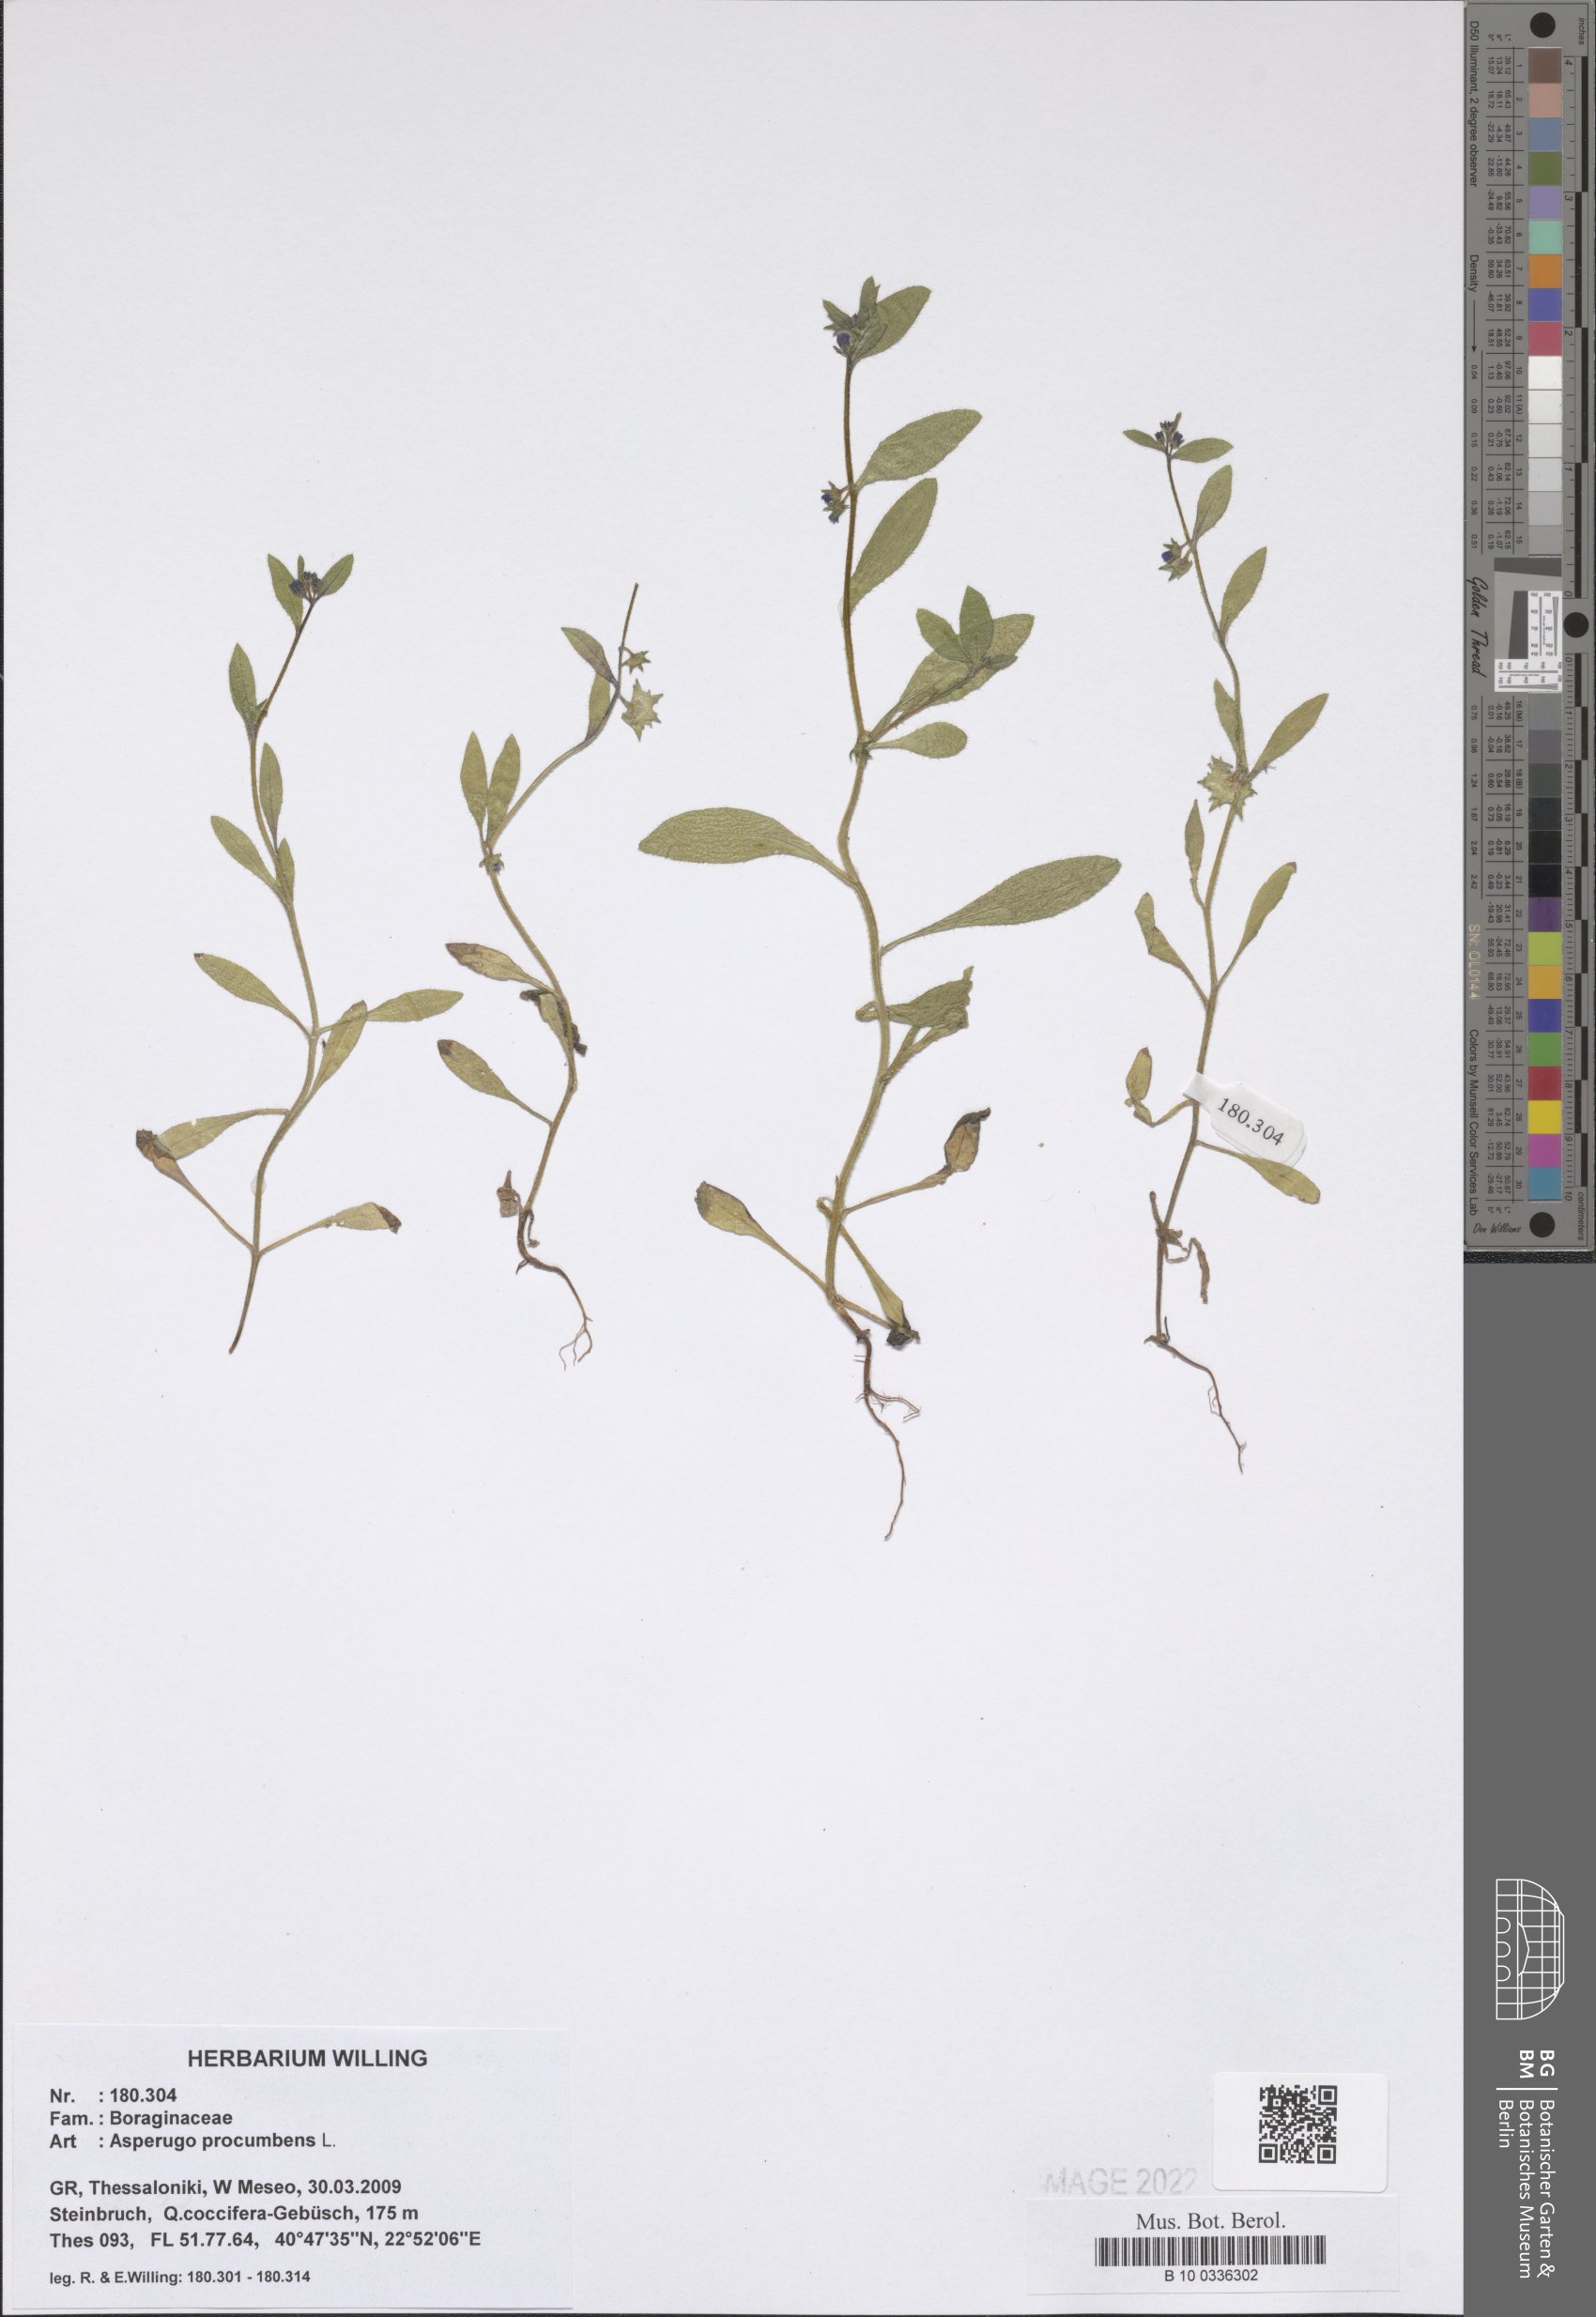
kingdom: Plantae
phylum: Tracheophyta
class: Magnoliopsida
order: Boraginales
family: Boraginaceae
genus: Asperugo
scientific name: Asperugo procumbens
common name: Madwort
